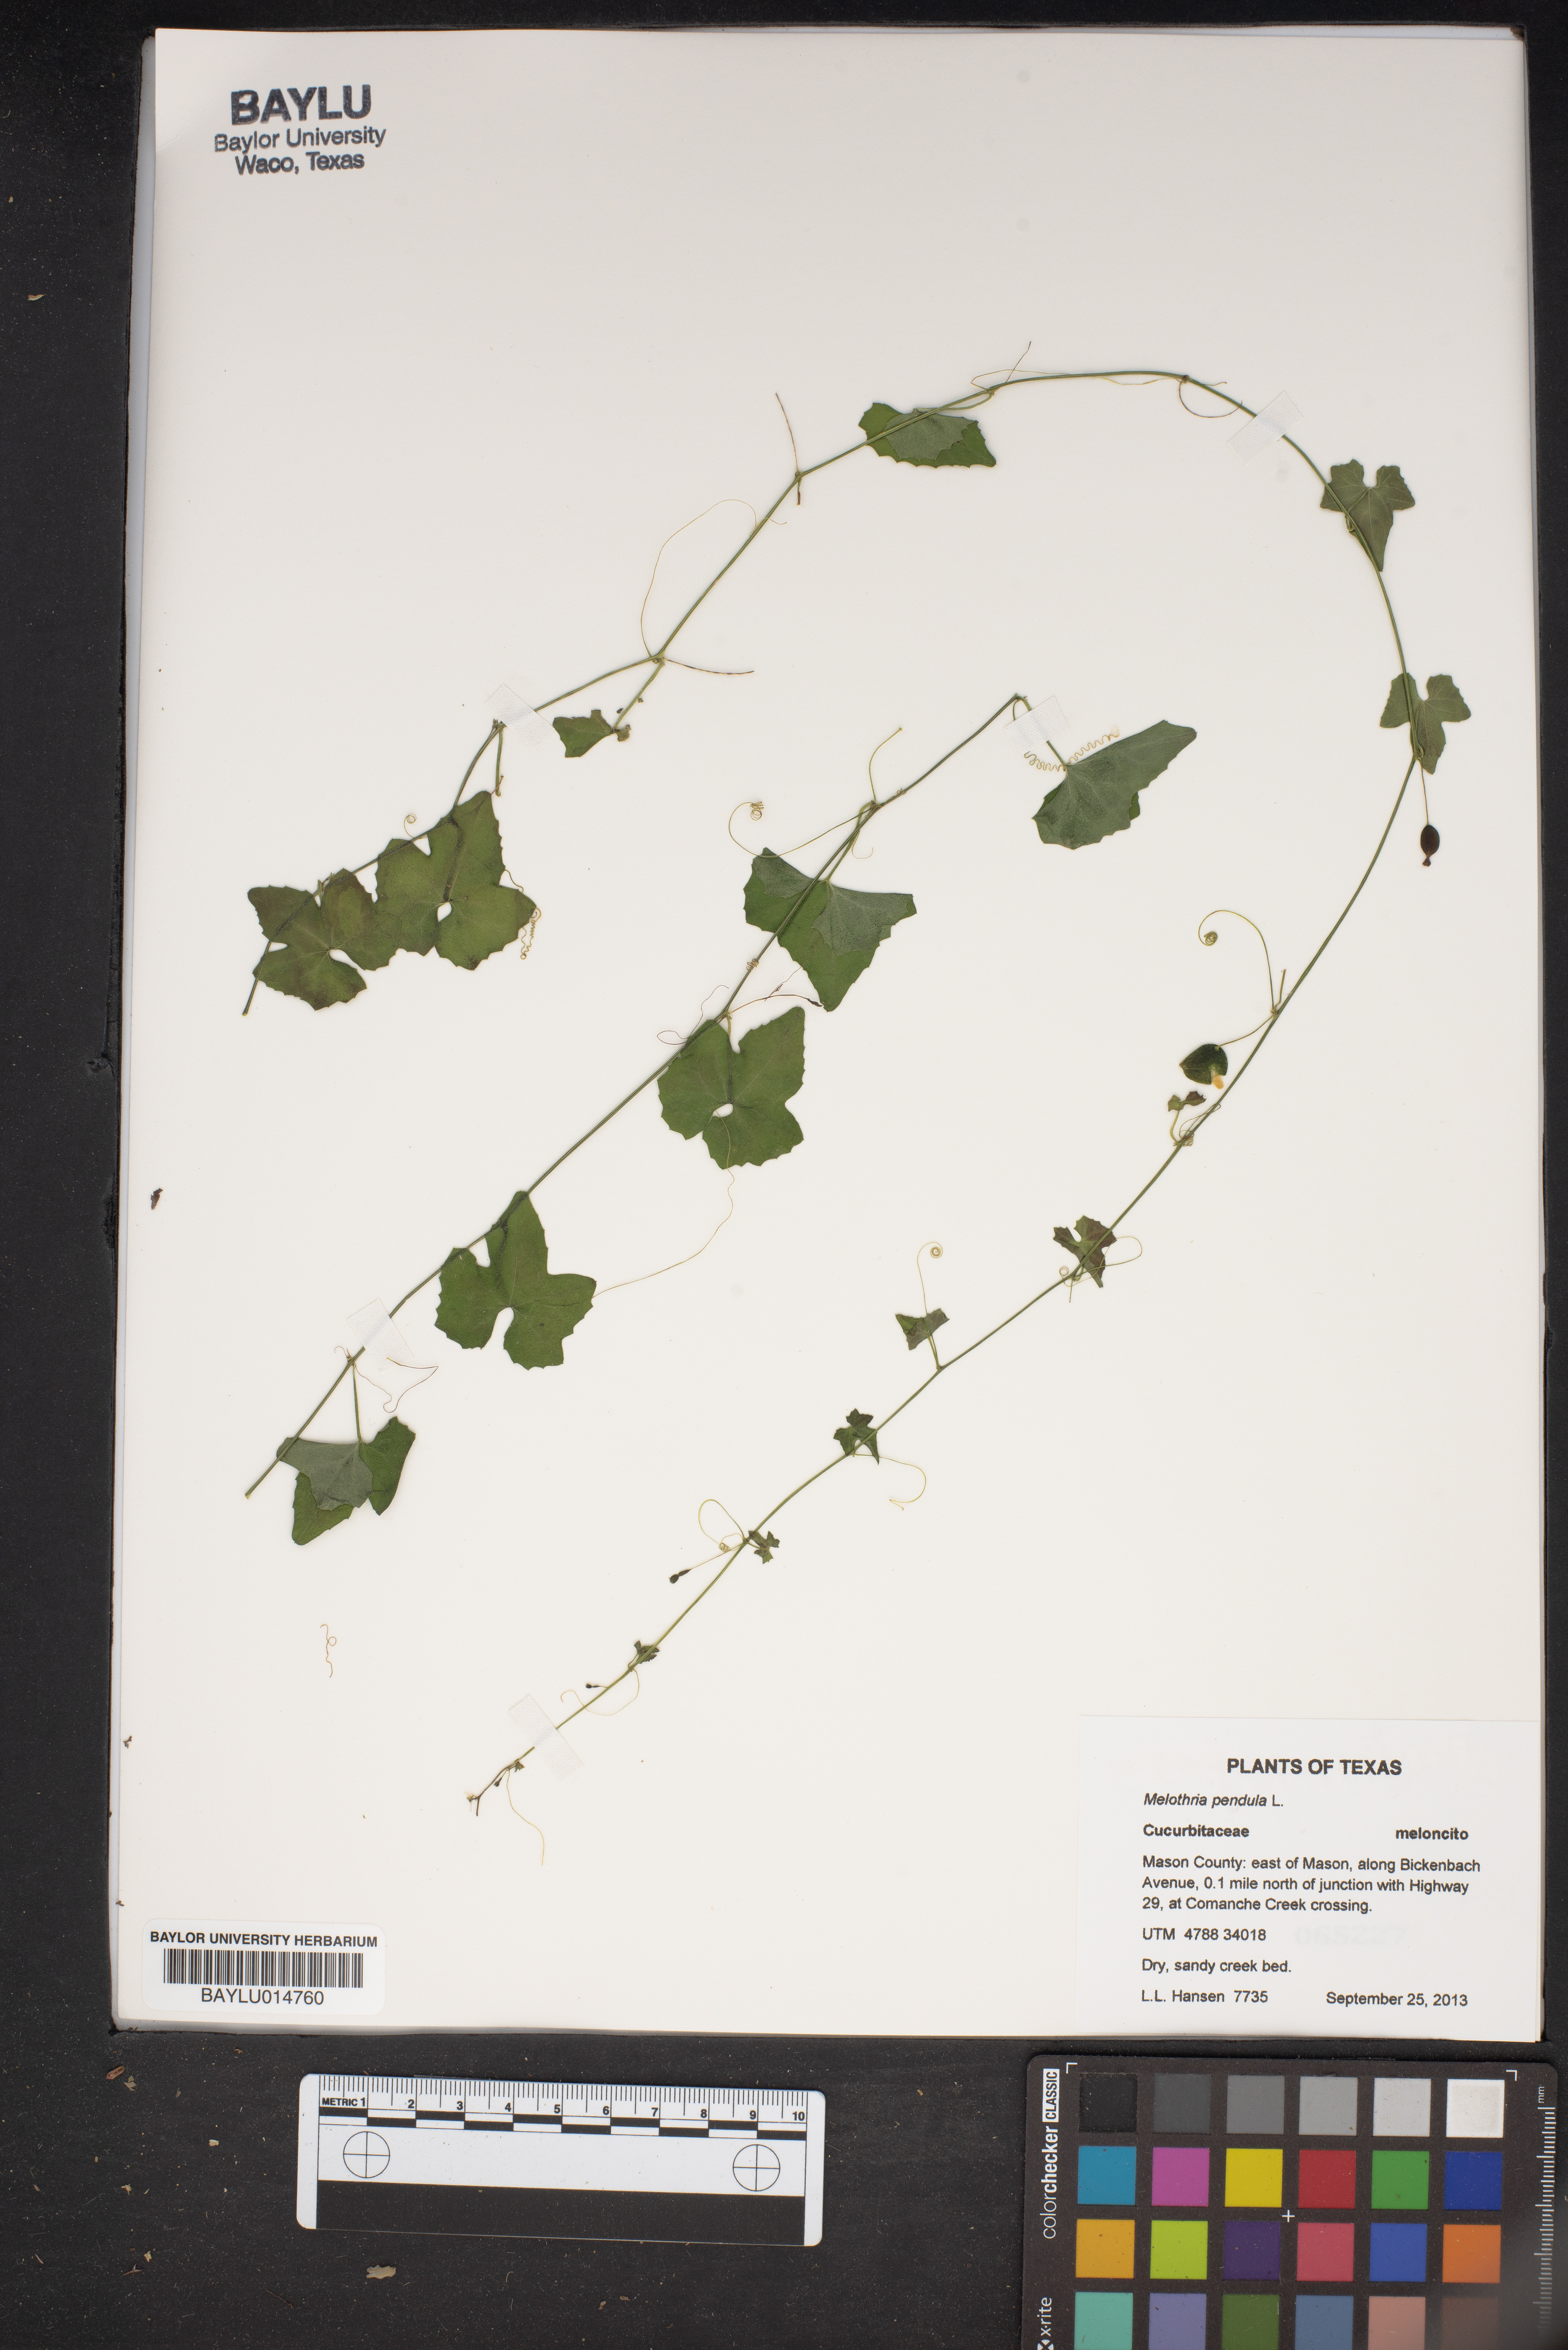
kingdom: Plantae
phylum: Tracheophyta
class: Magnoliopsida
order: Cucurbitales
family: Cucurbitaceae
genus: Melothria
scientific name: Melothria pendula
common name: Creeping-cucumber
